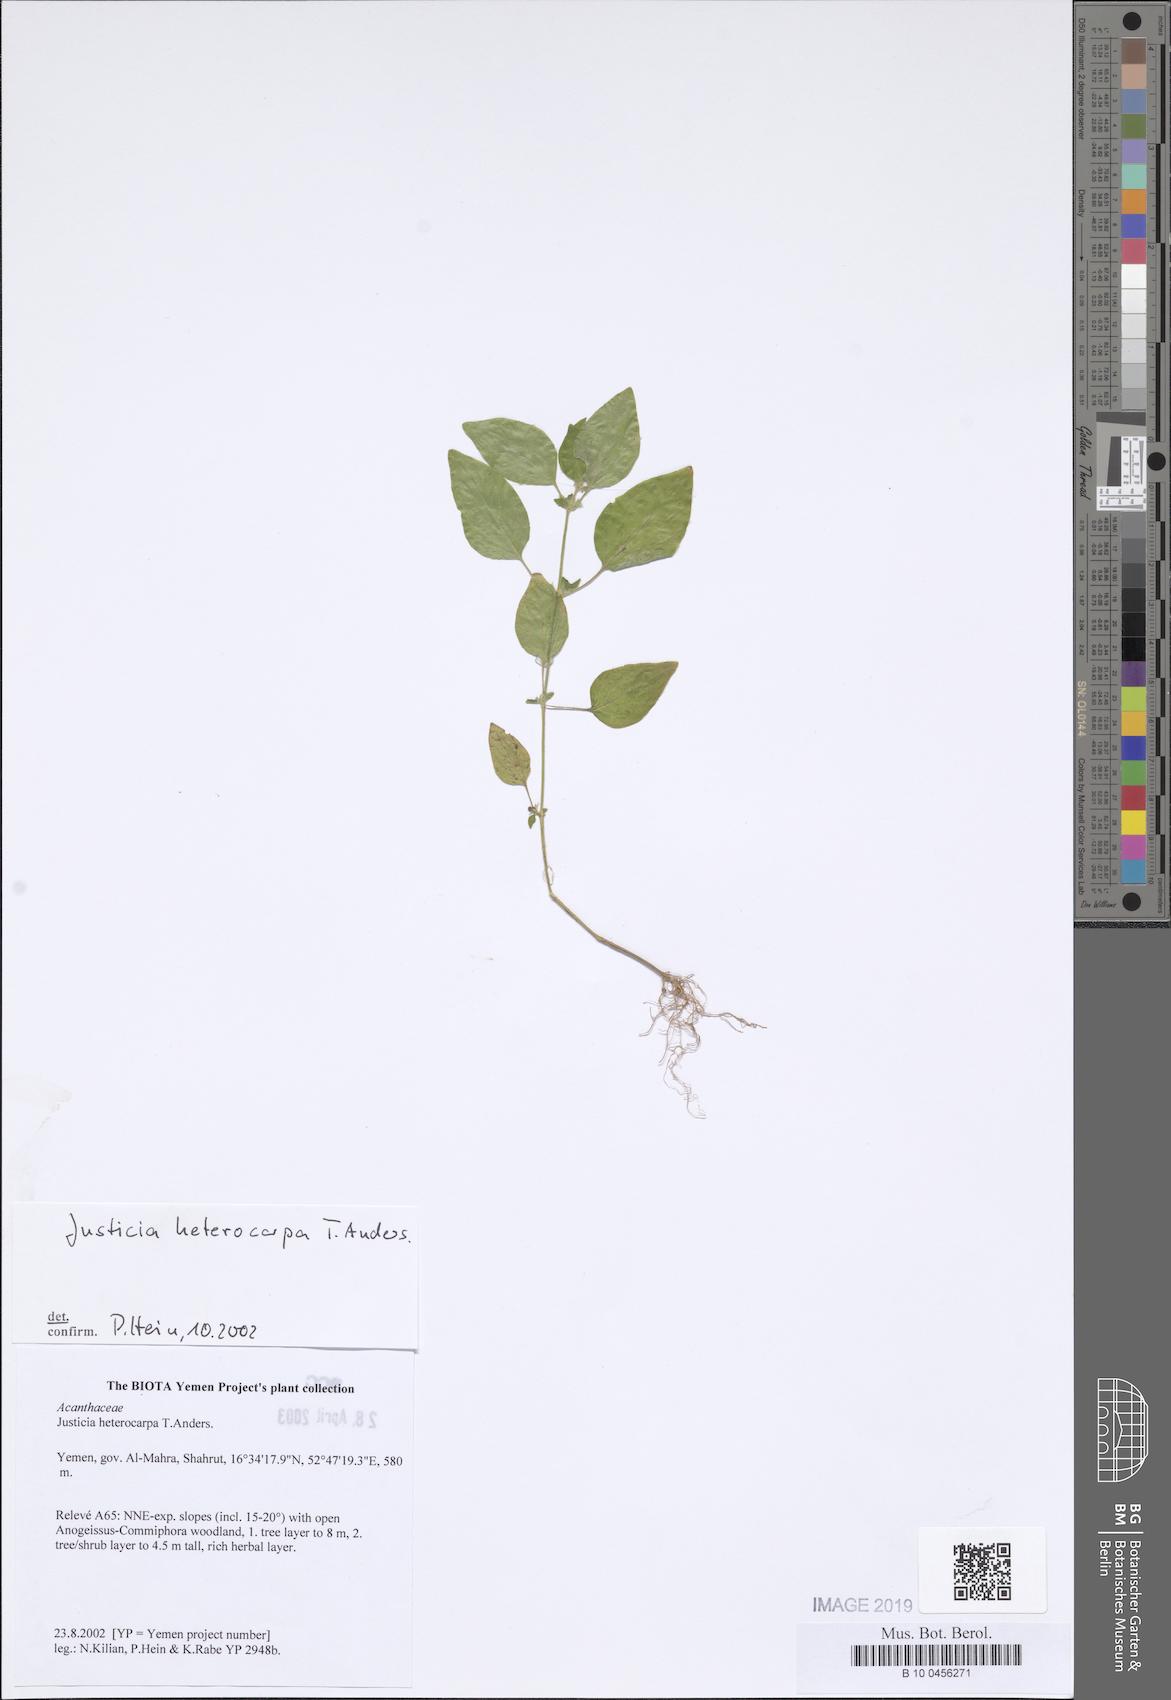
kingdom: Plantae
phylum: Tracheophyta
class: Magnoliopsida
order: Lamiales
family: Acanthaceae
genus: Justicia
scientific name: Justicia heterocarpa
